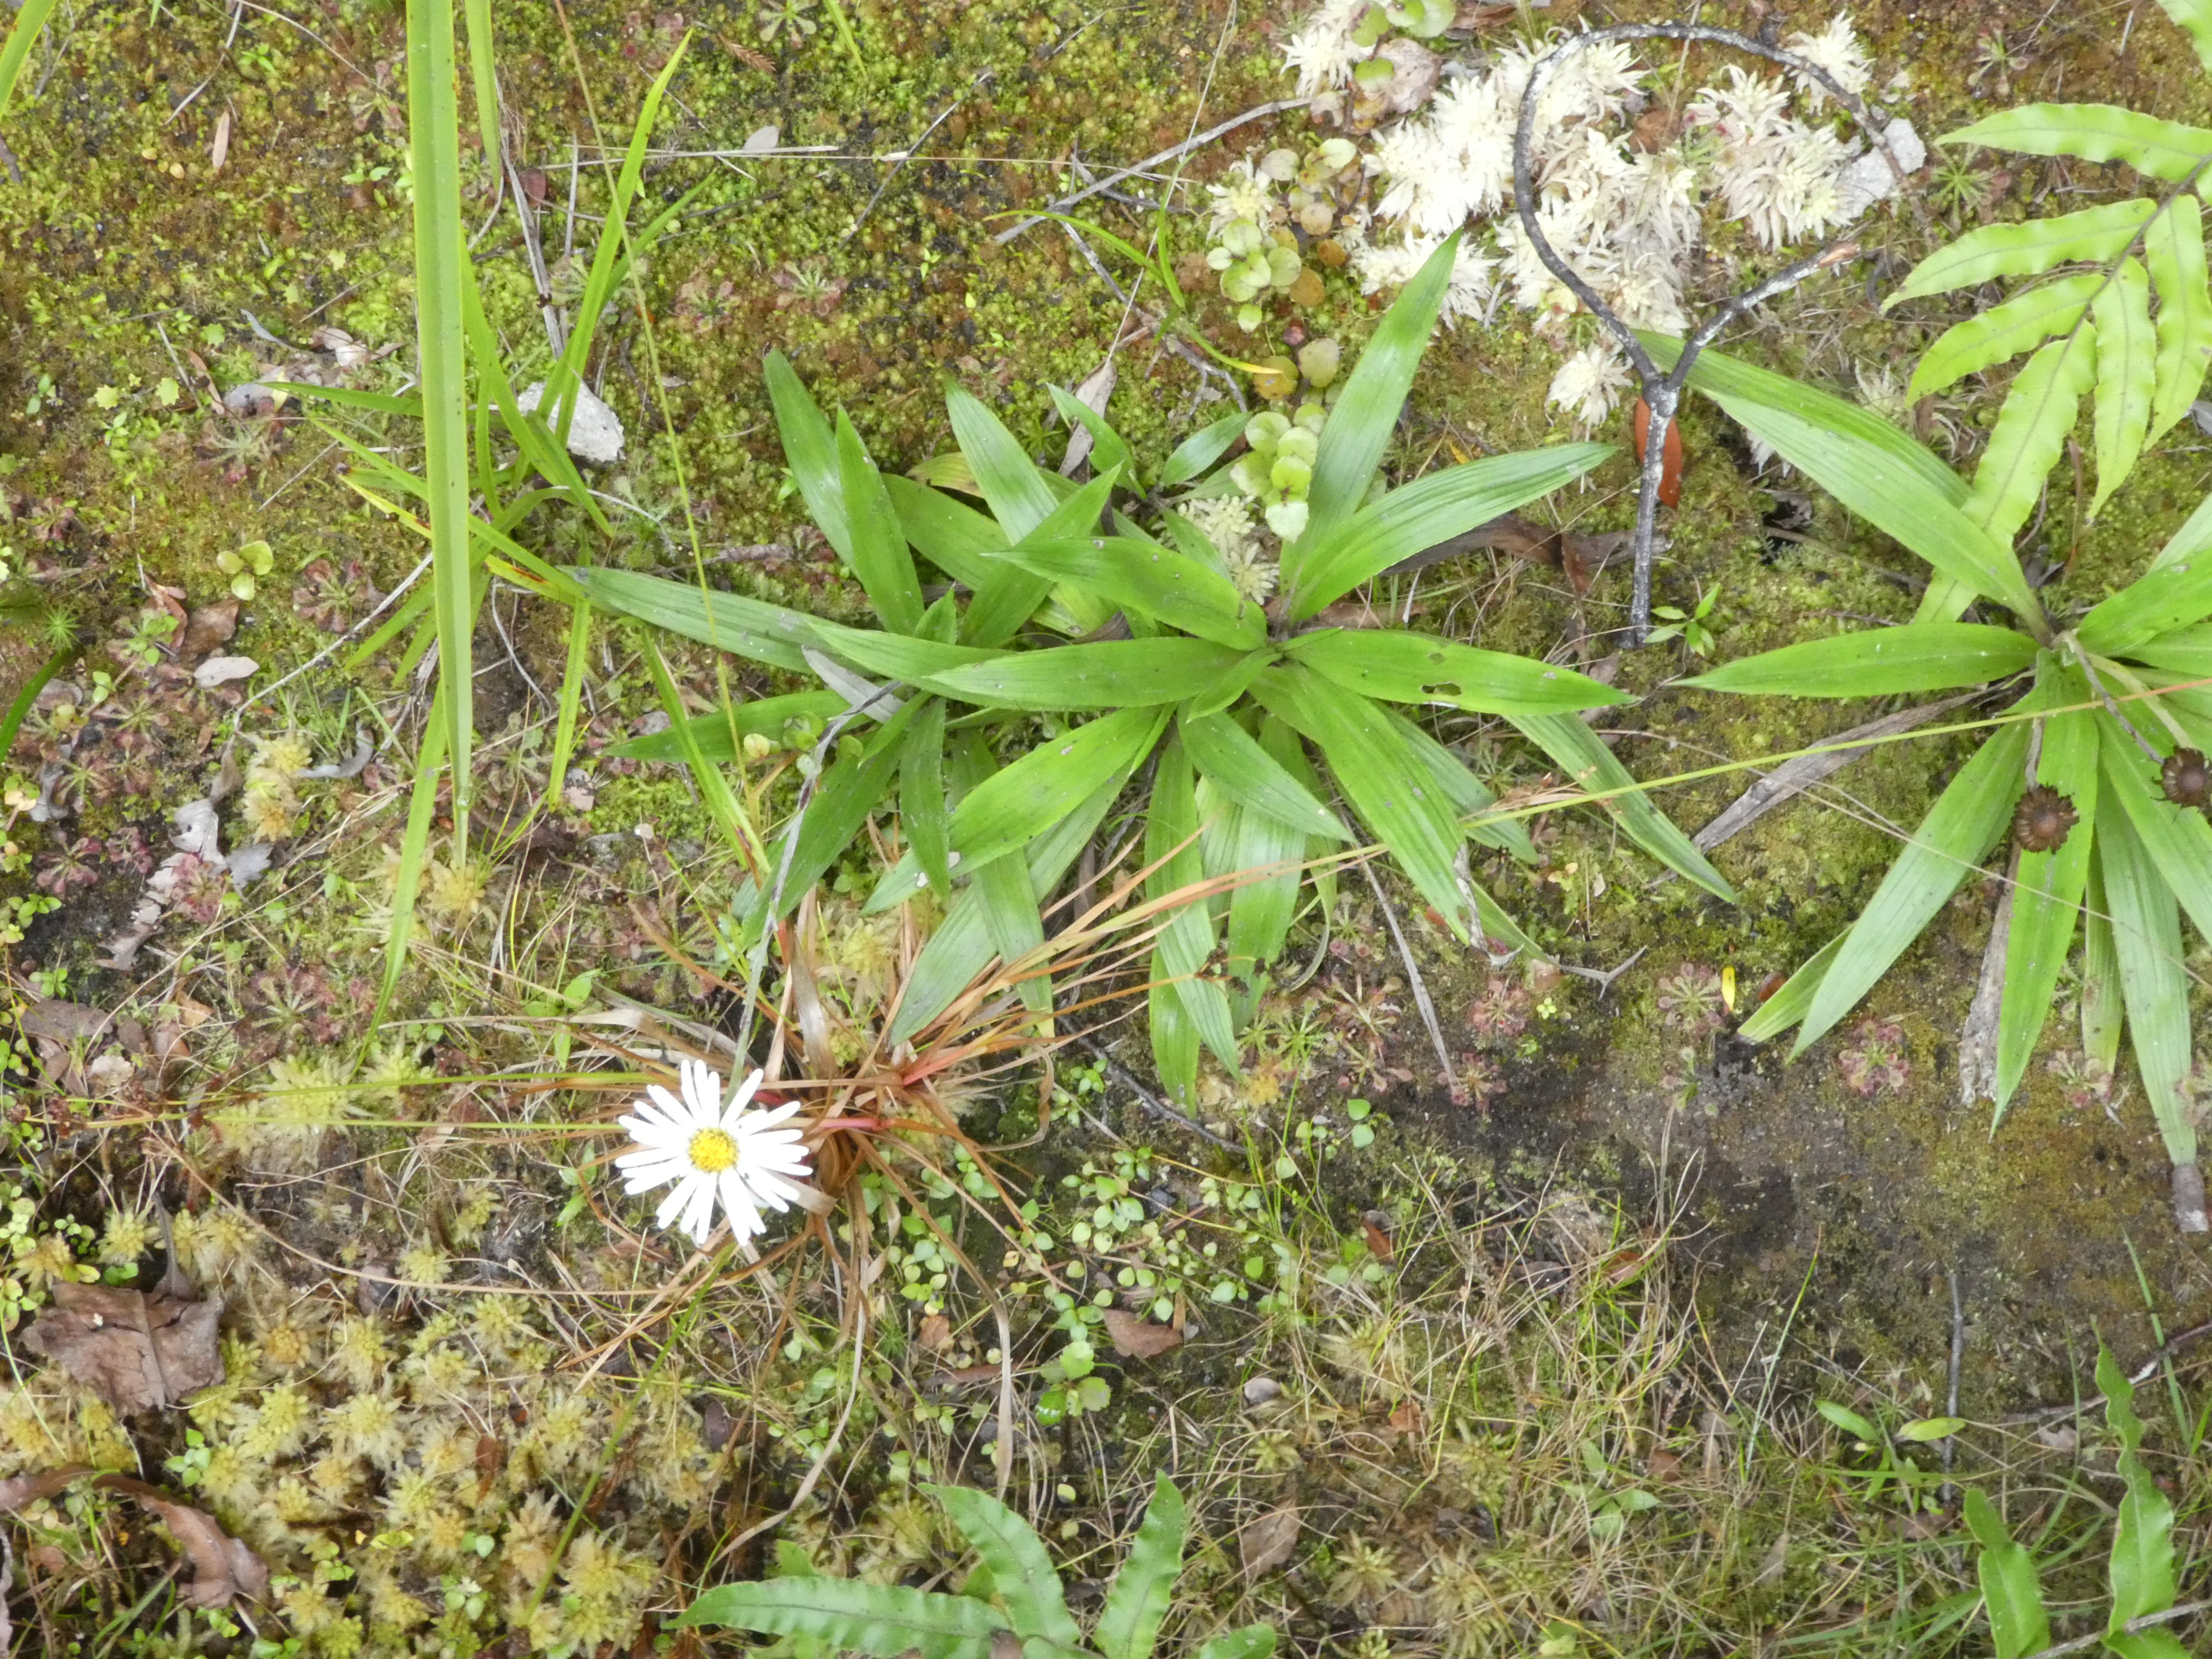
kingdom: Plantae
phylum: Tracheophyta
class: Magnoliopsida
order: Asterales
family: Asteraceae
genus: Celmisia
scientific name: Celmisia morganii
